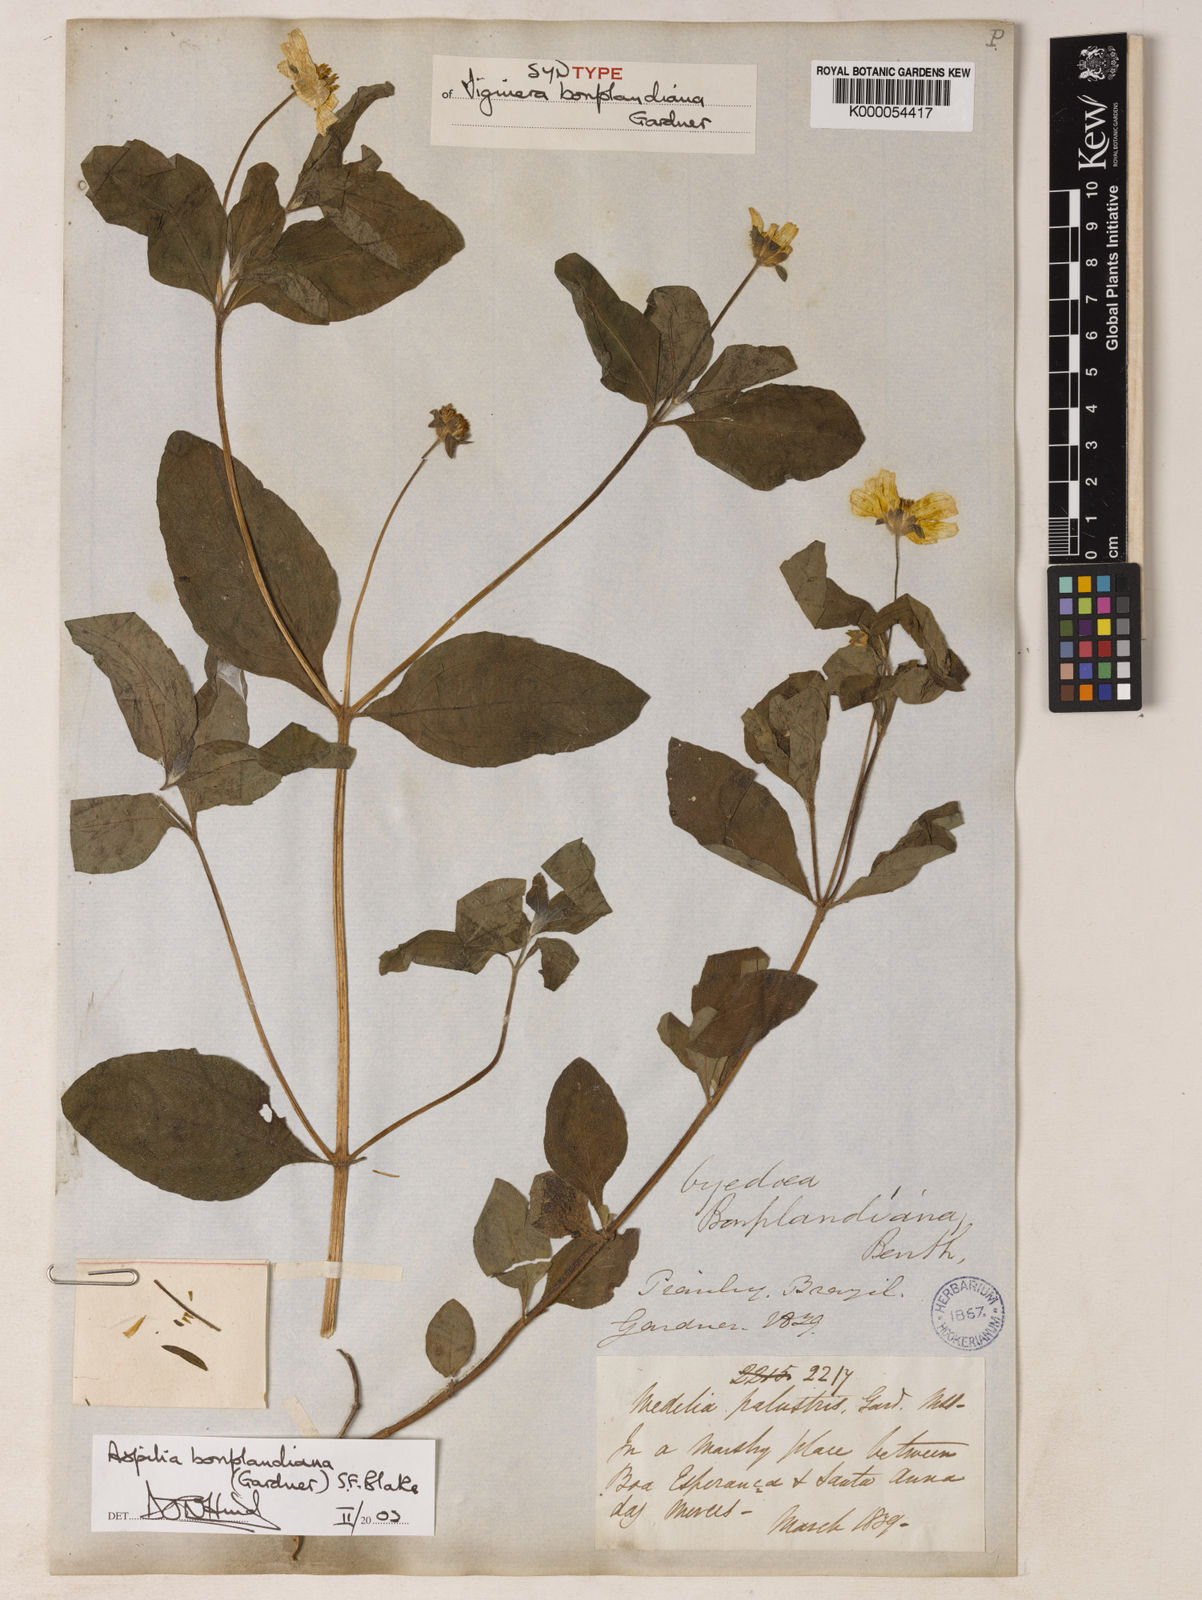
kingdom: Plantae
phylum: Tracheophyta
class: Magnoliopsida
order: Asterales
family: Asteraceae
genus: Wedelia
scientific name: Wedelia bonplandiana
